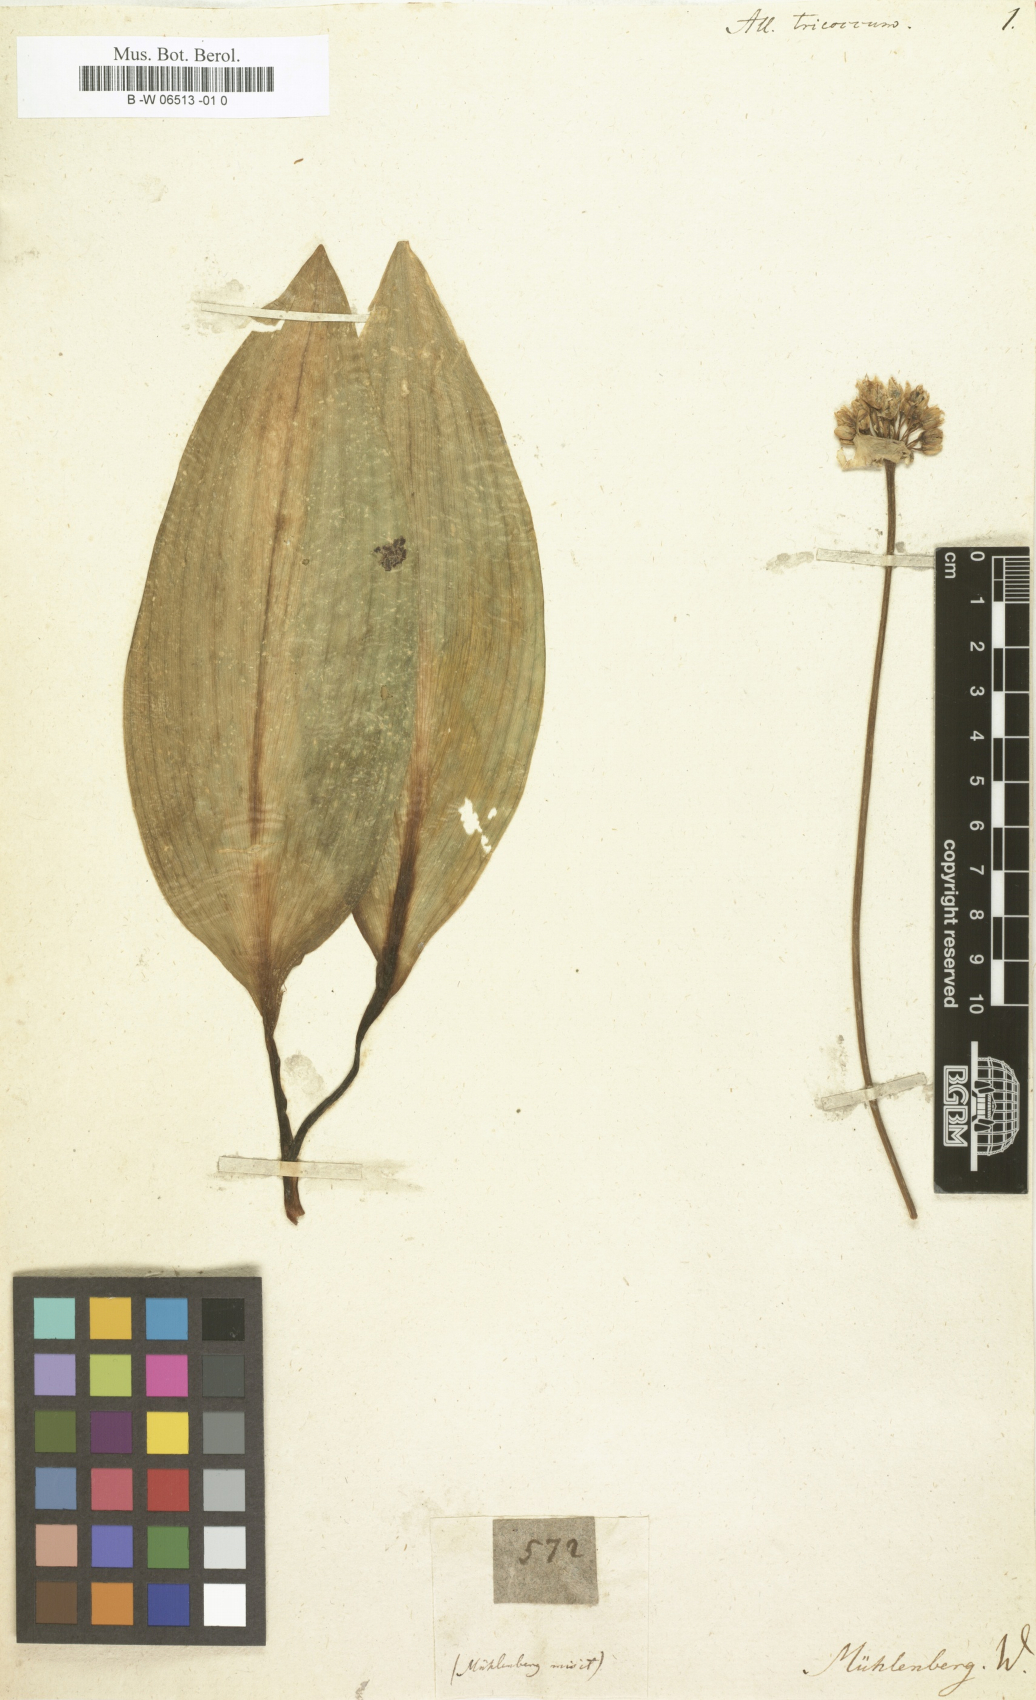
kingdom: Plantae
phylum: Tracheophyta
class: Liliopsida
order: Asparagales
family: Amaryllidaceae
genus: Allium
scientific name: Allium tricoccum
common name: Ramp
